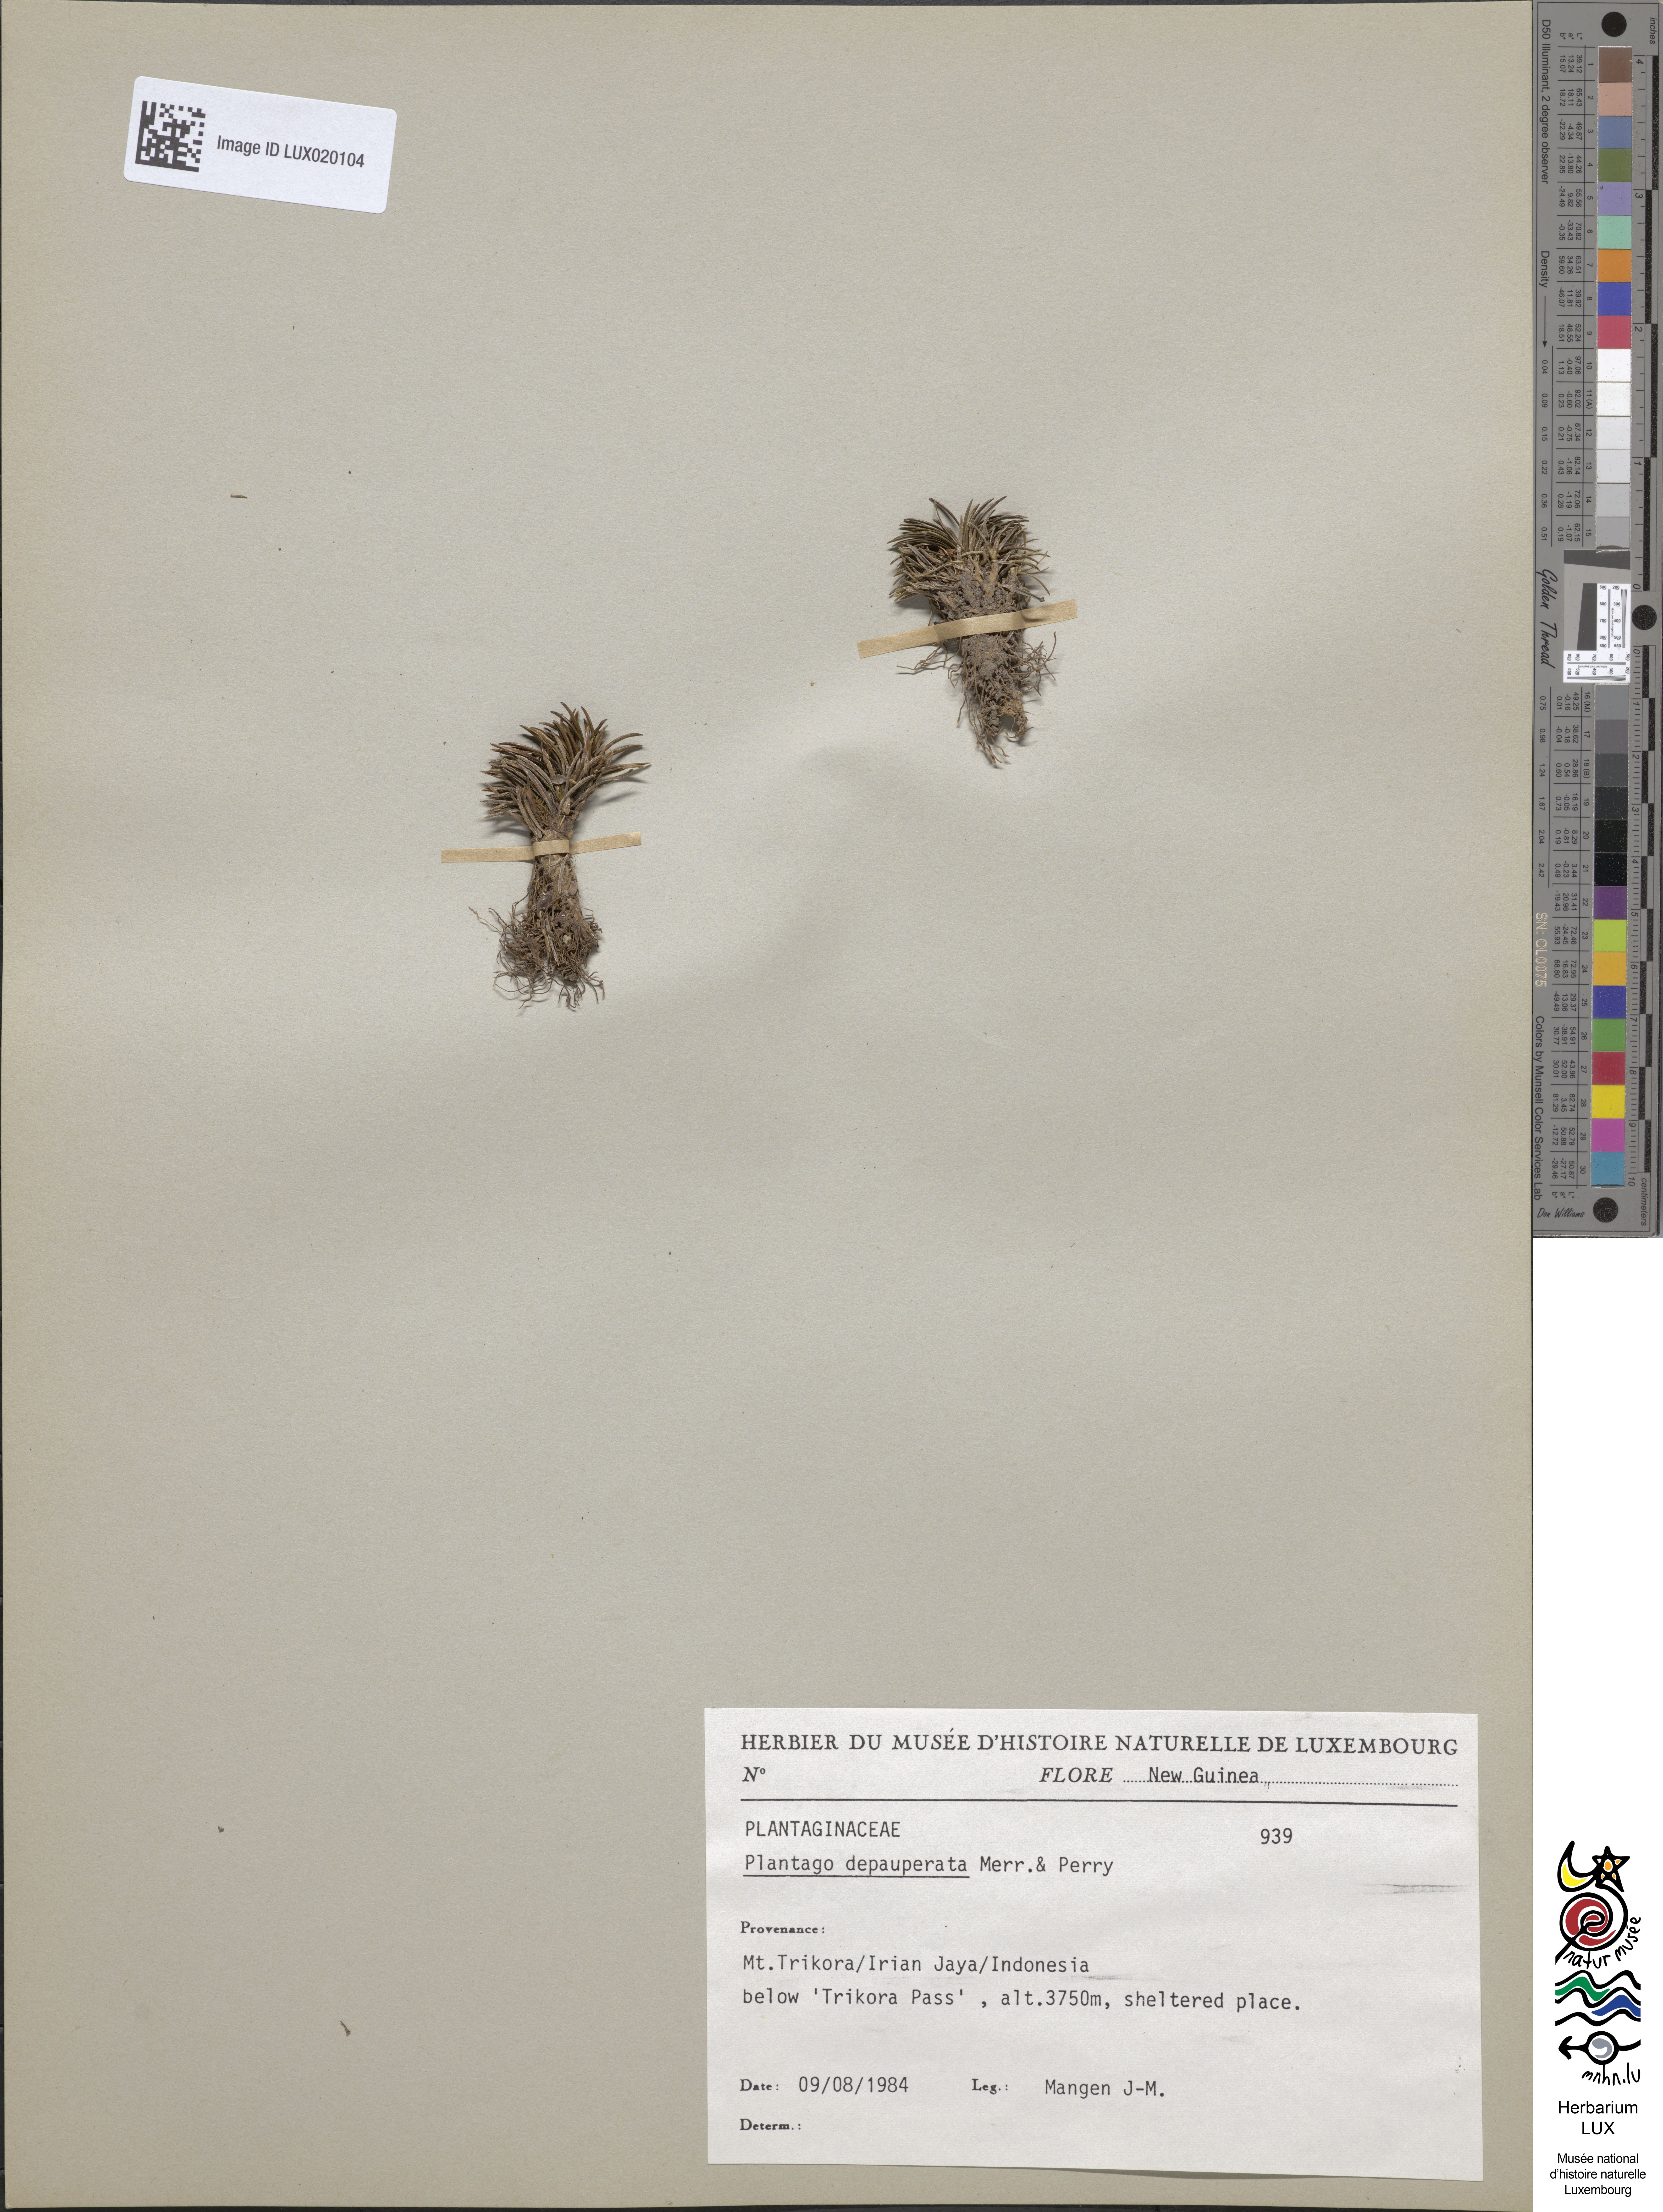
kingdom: Plantae
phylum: Tracheophyta
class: Magnoliopsida
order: Lamiales
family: Plantaginaceae
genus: Plantago
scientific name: Plantago depauperata
